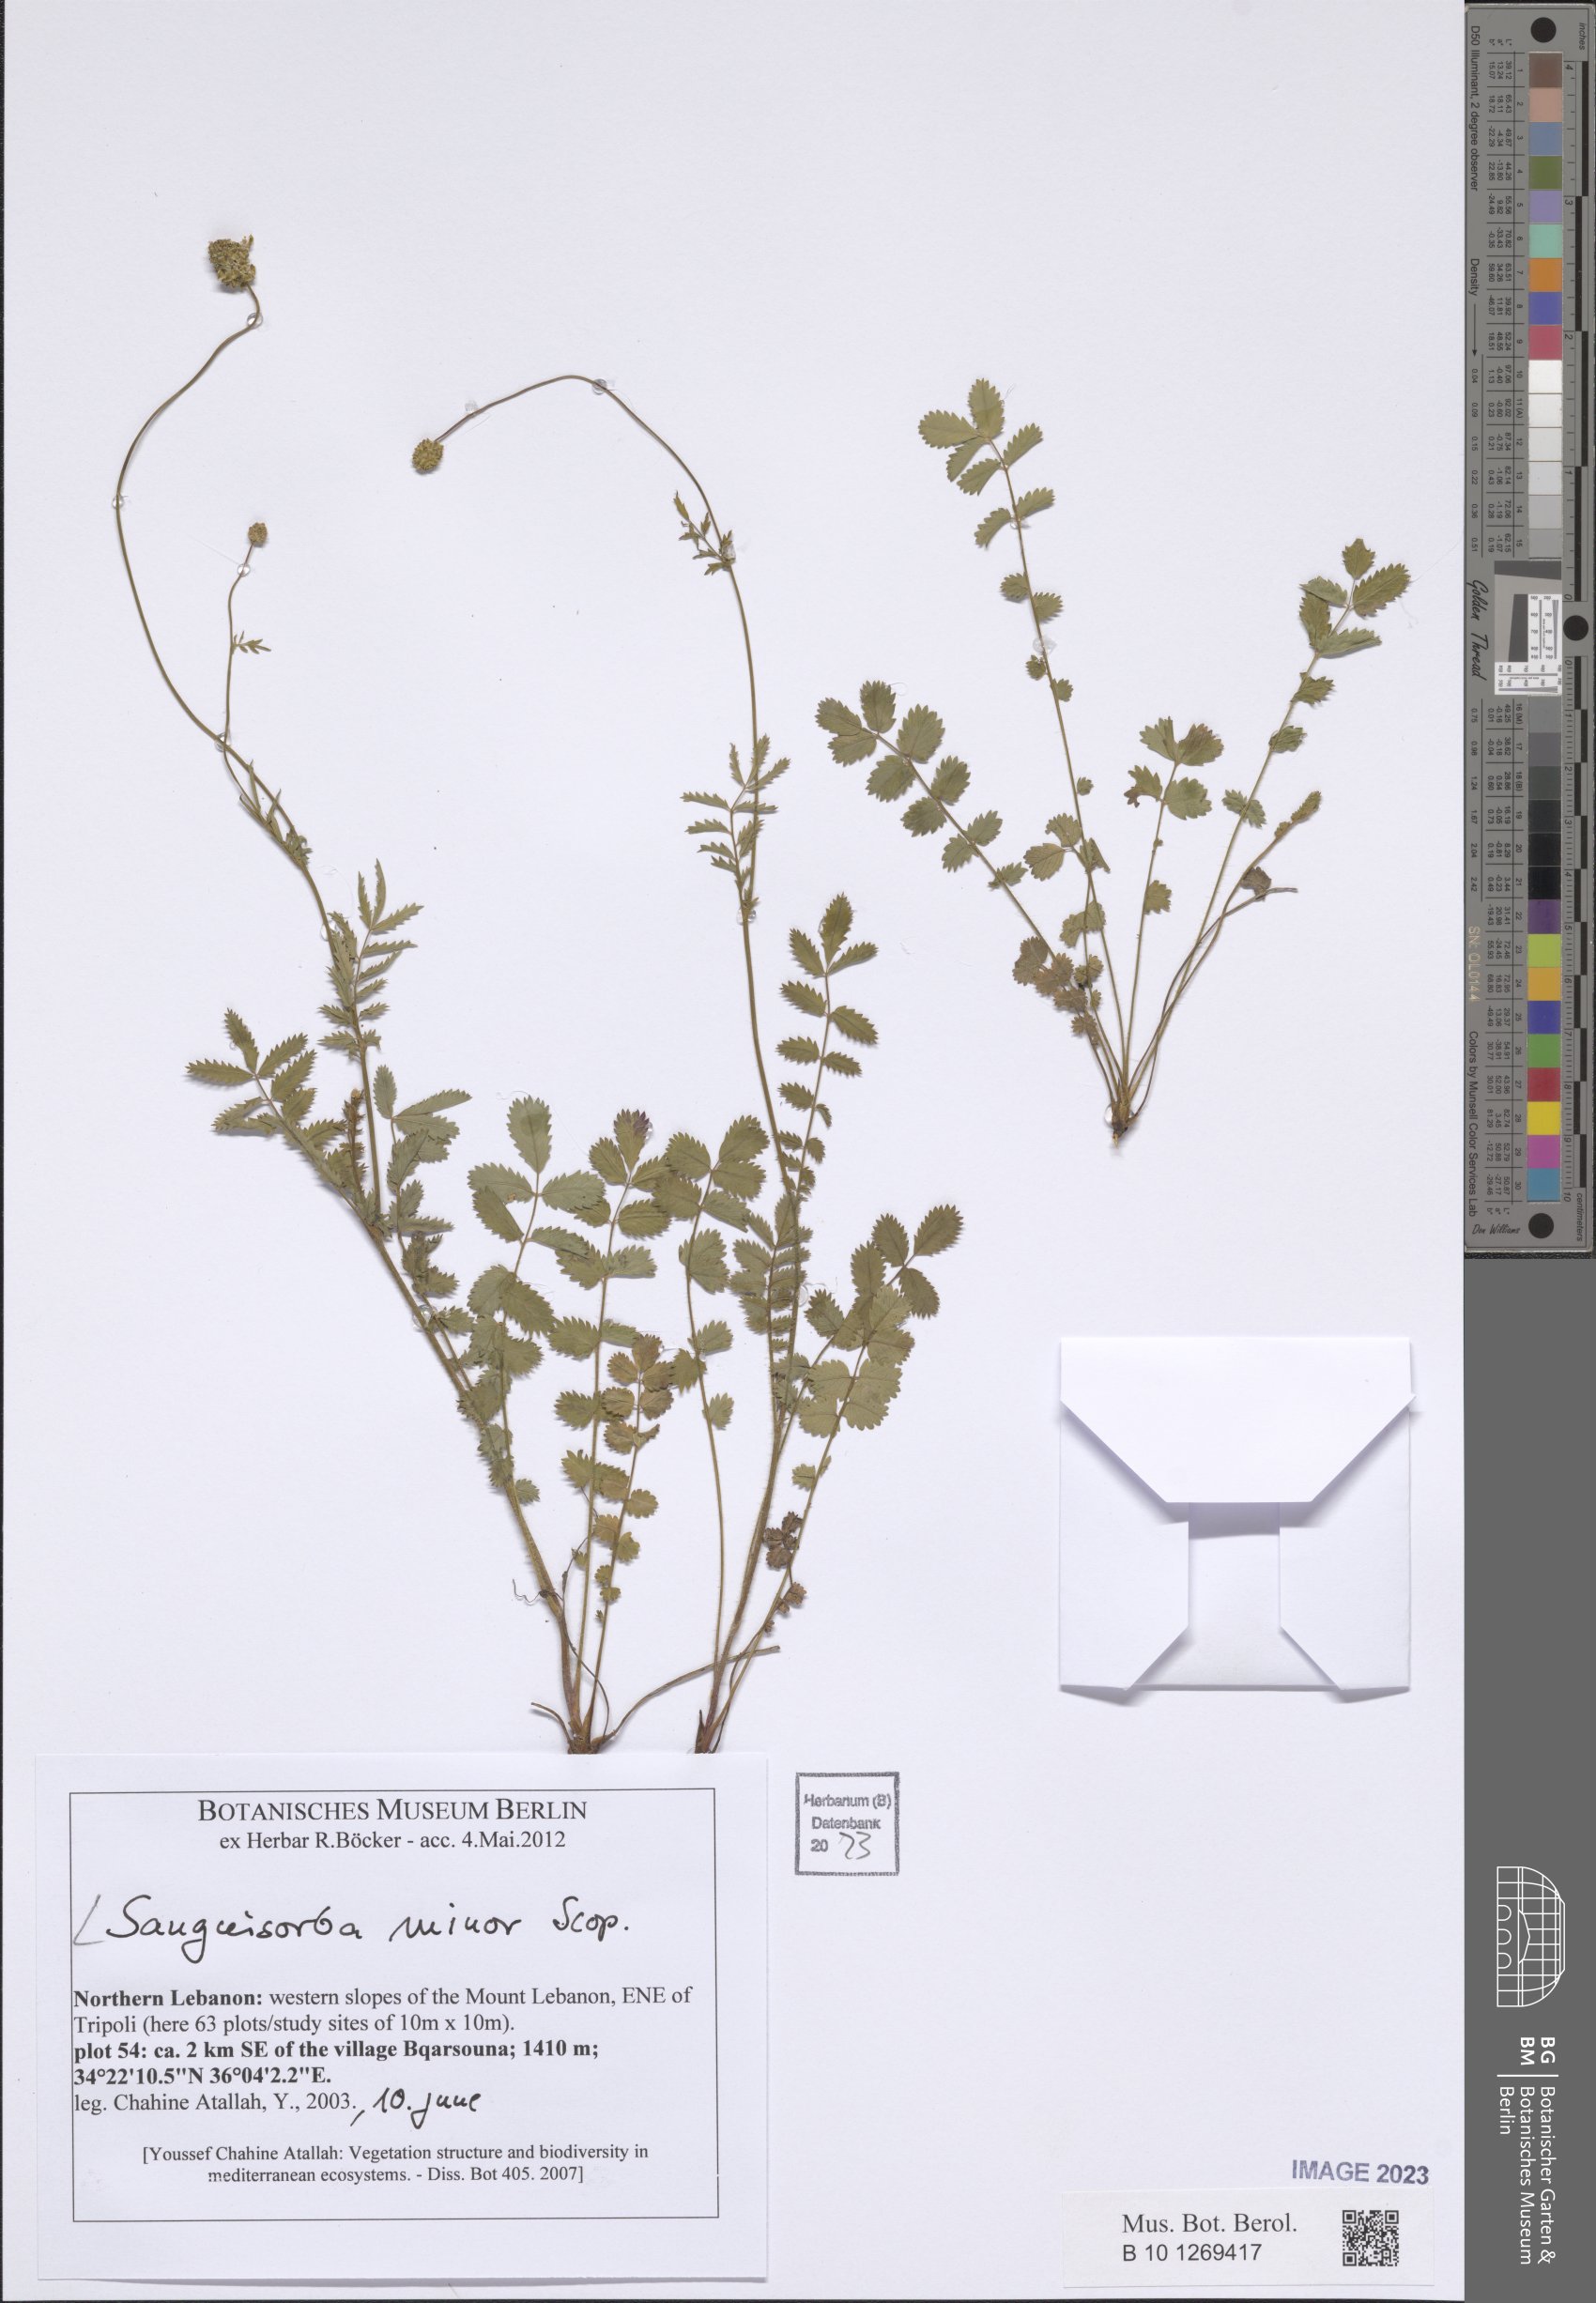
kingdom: Plantae
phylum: Tracheophyta
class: Magnoliopsida
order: Rosales
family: Rosaceae
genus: Poterium
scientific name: Poterium sanguisorba
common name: Salad burnet
